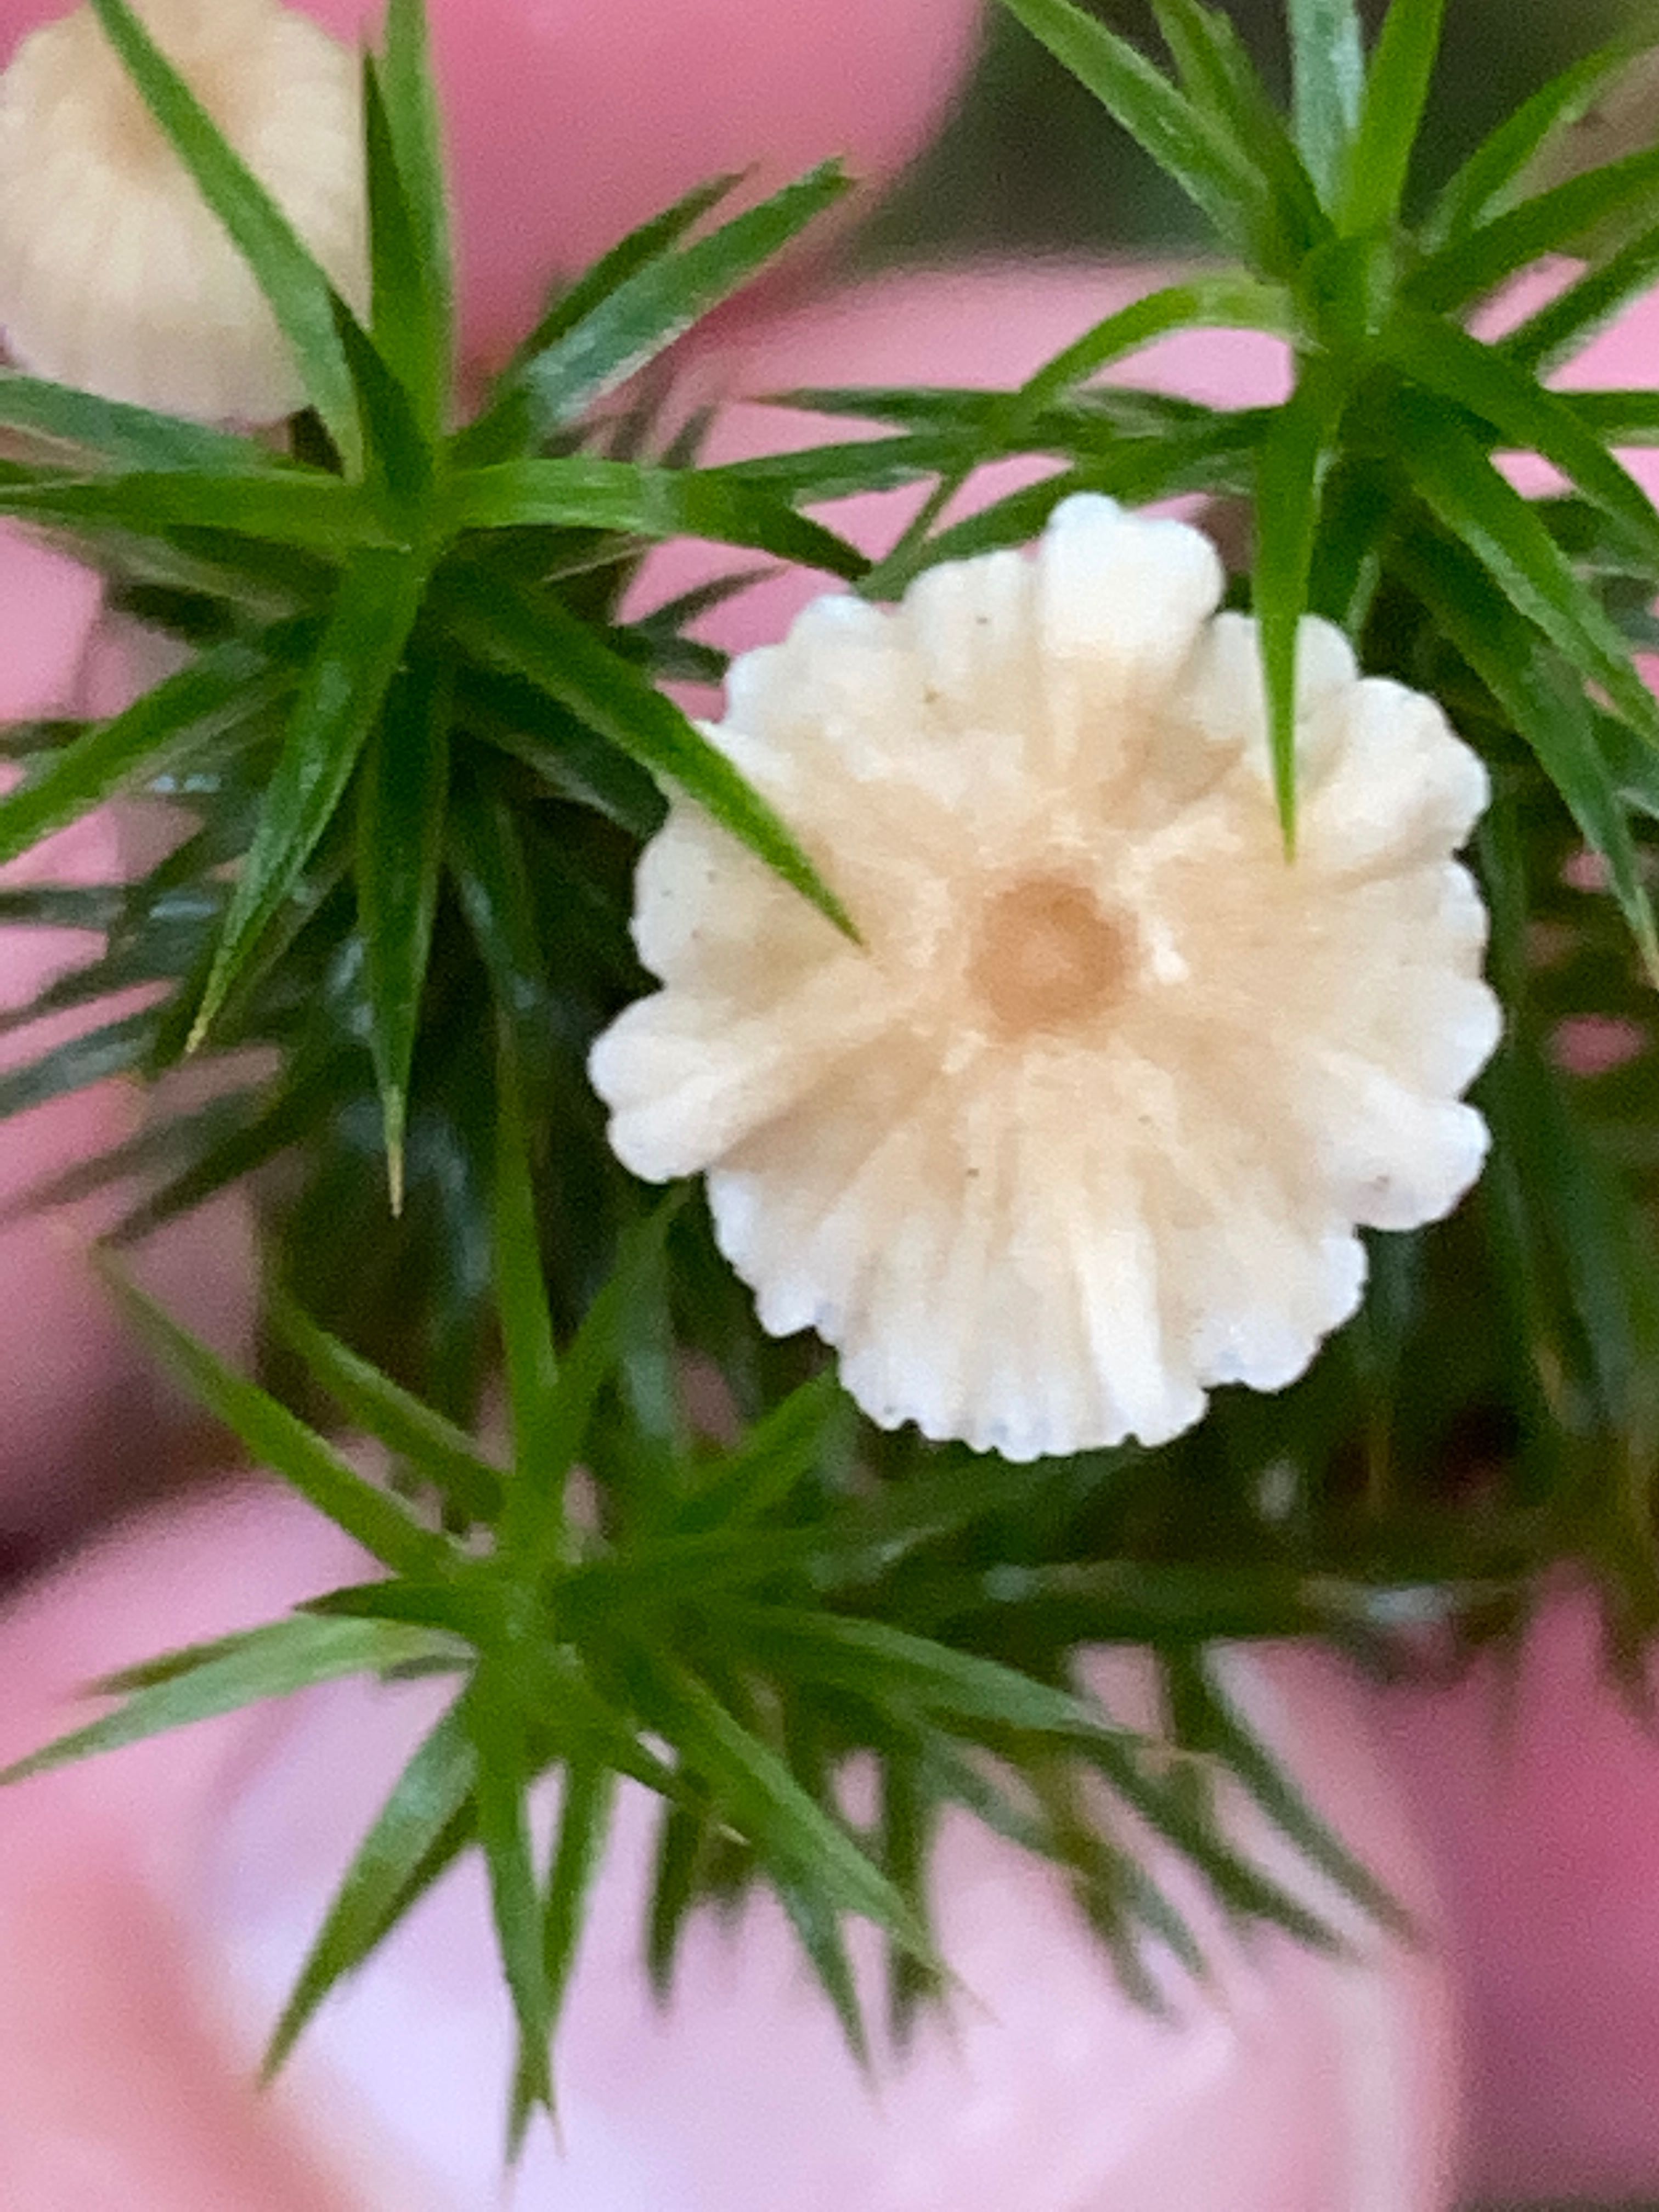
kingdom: Fungi
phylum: Basidiomycota
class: Agaricomycetes
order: Agaricales
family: Mycenaceae
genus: Roridomyces
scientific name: Roridomyces roridus
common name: slimfod
